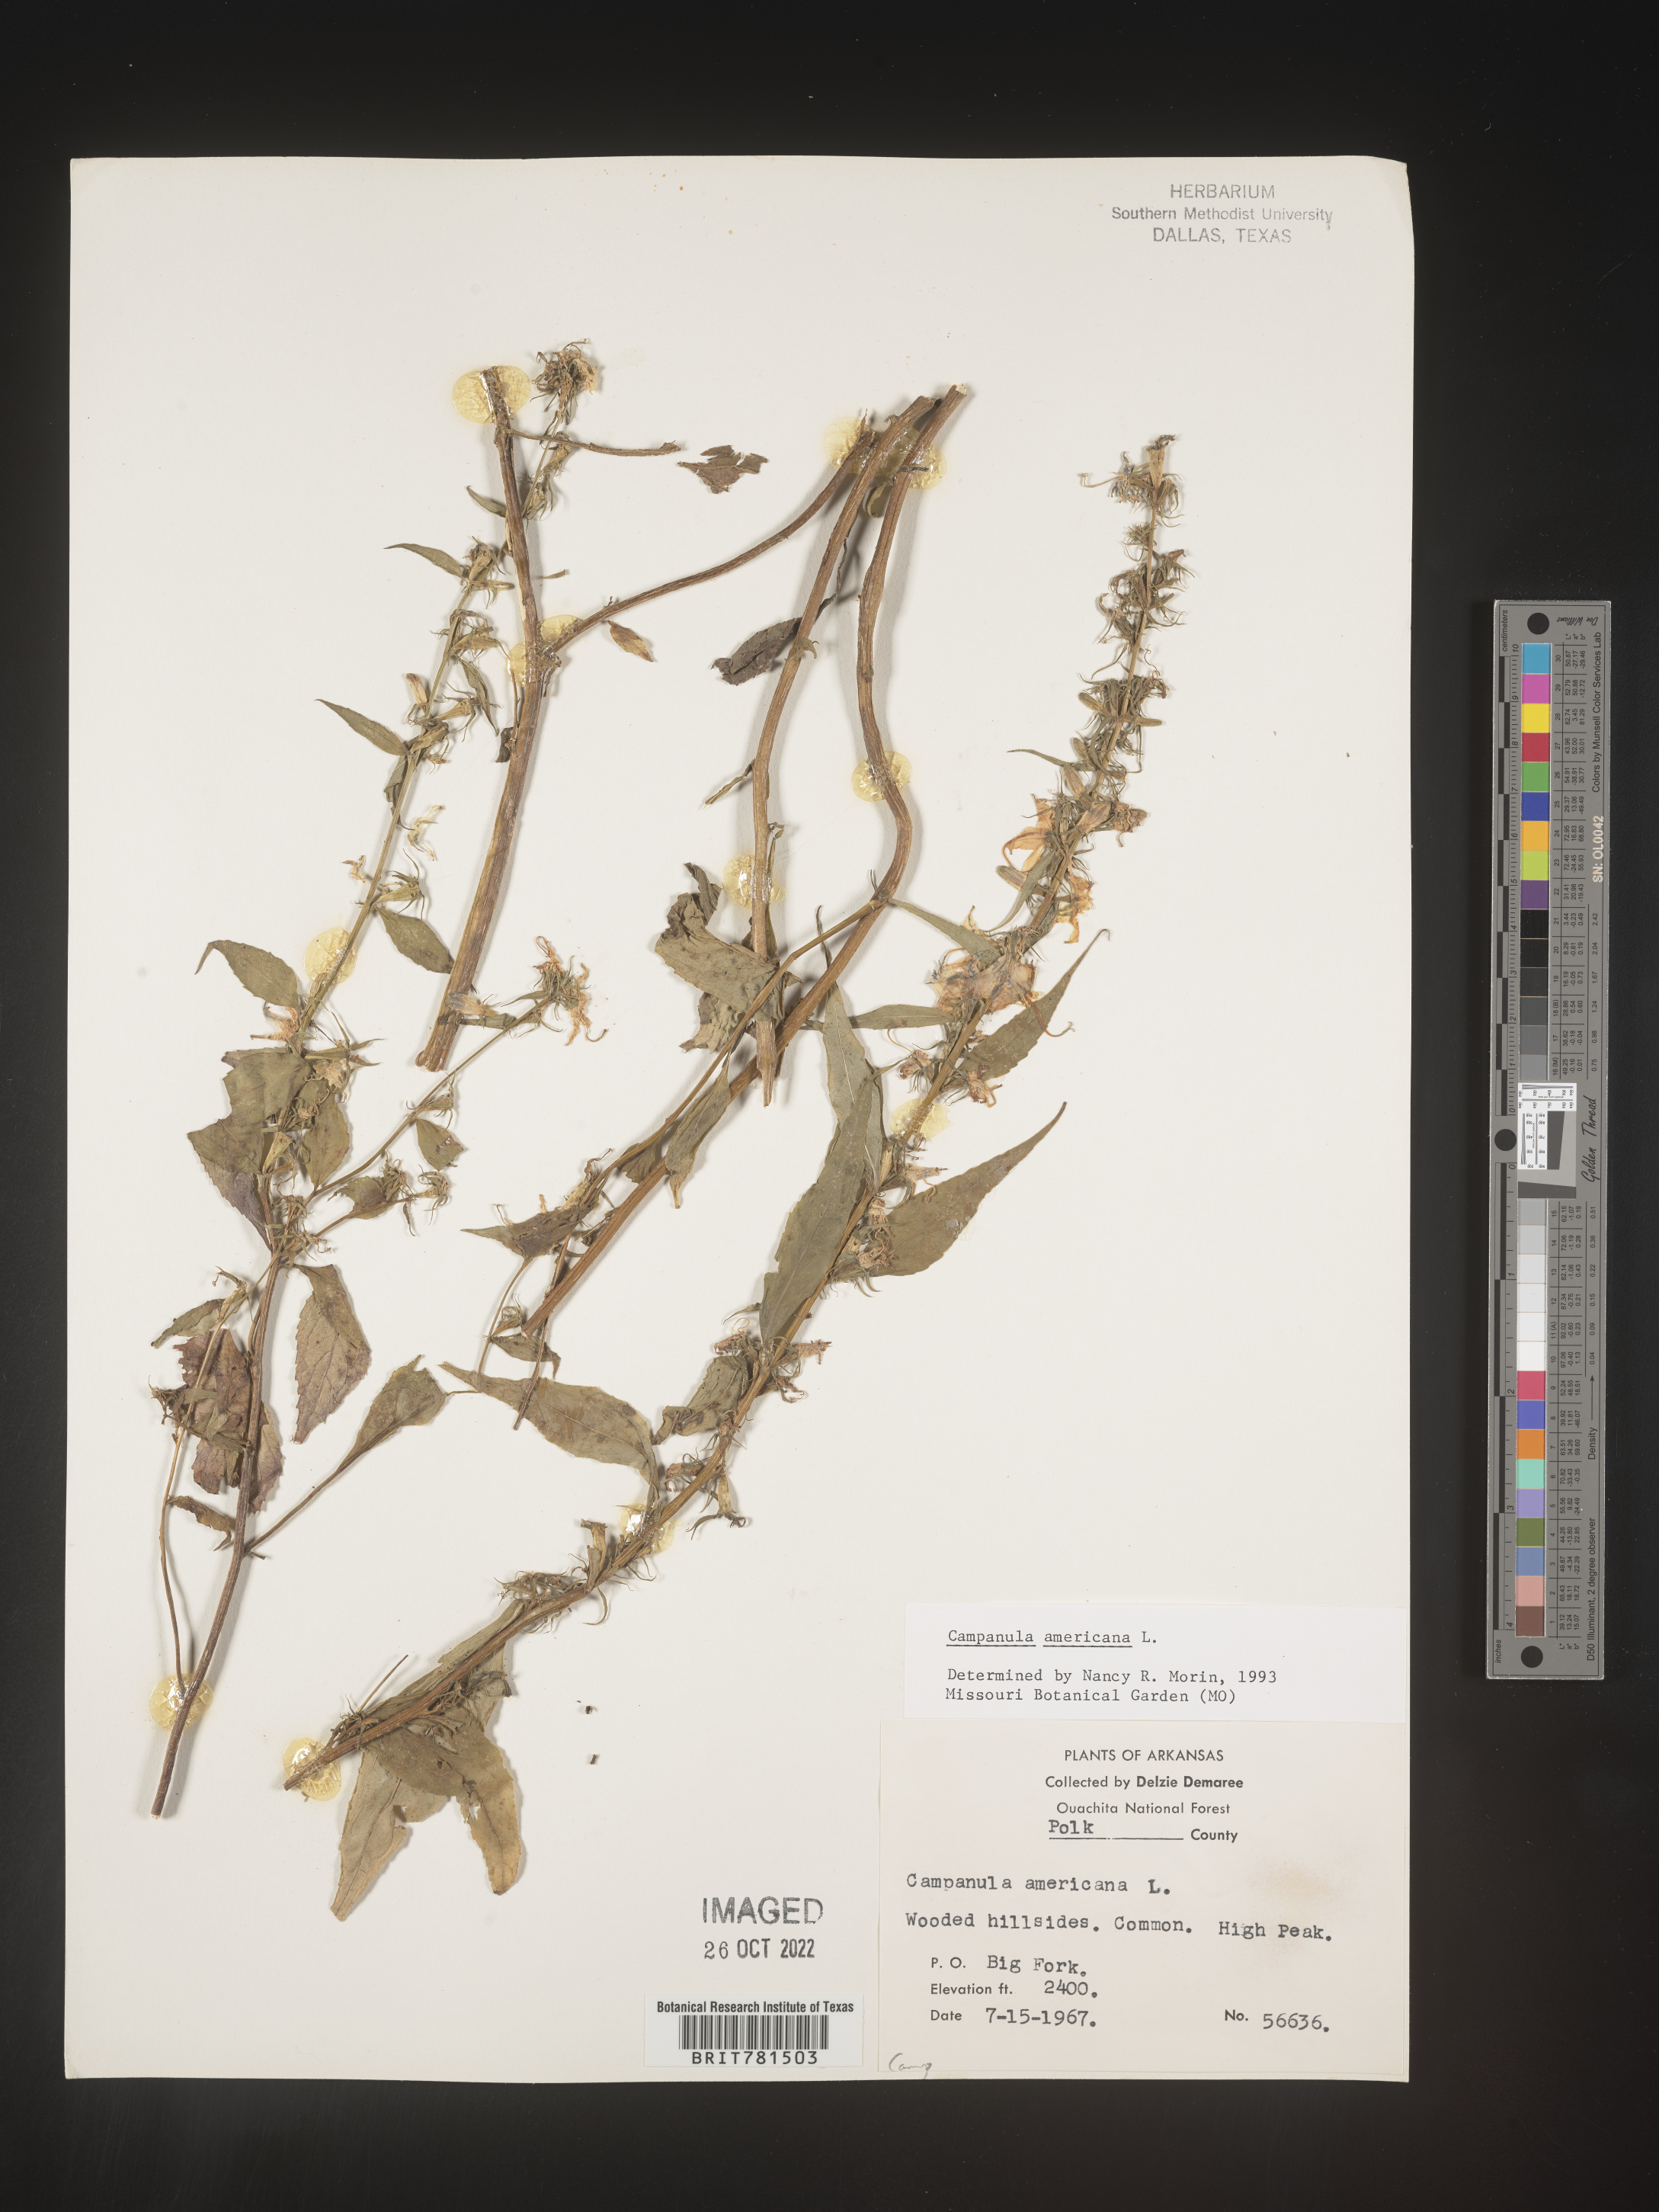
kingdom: Plantae
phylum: Tracheophyta
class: Magnoliopsida
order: Asterales
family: Campanulaceae
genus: Campanula
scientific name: Campanula americana
